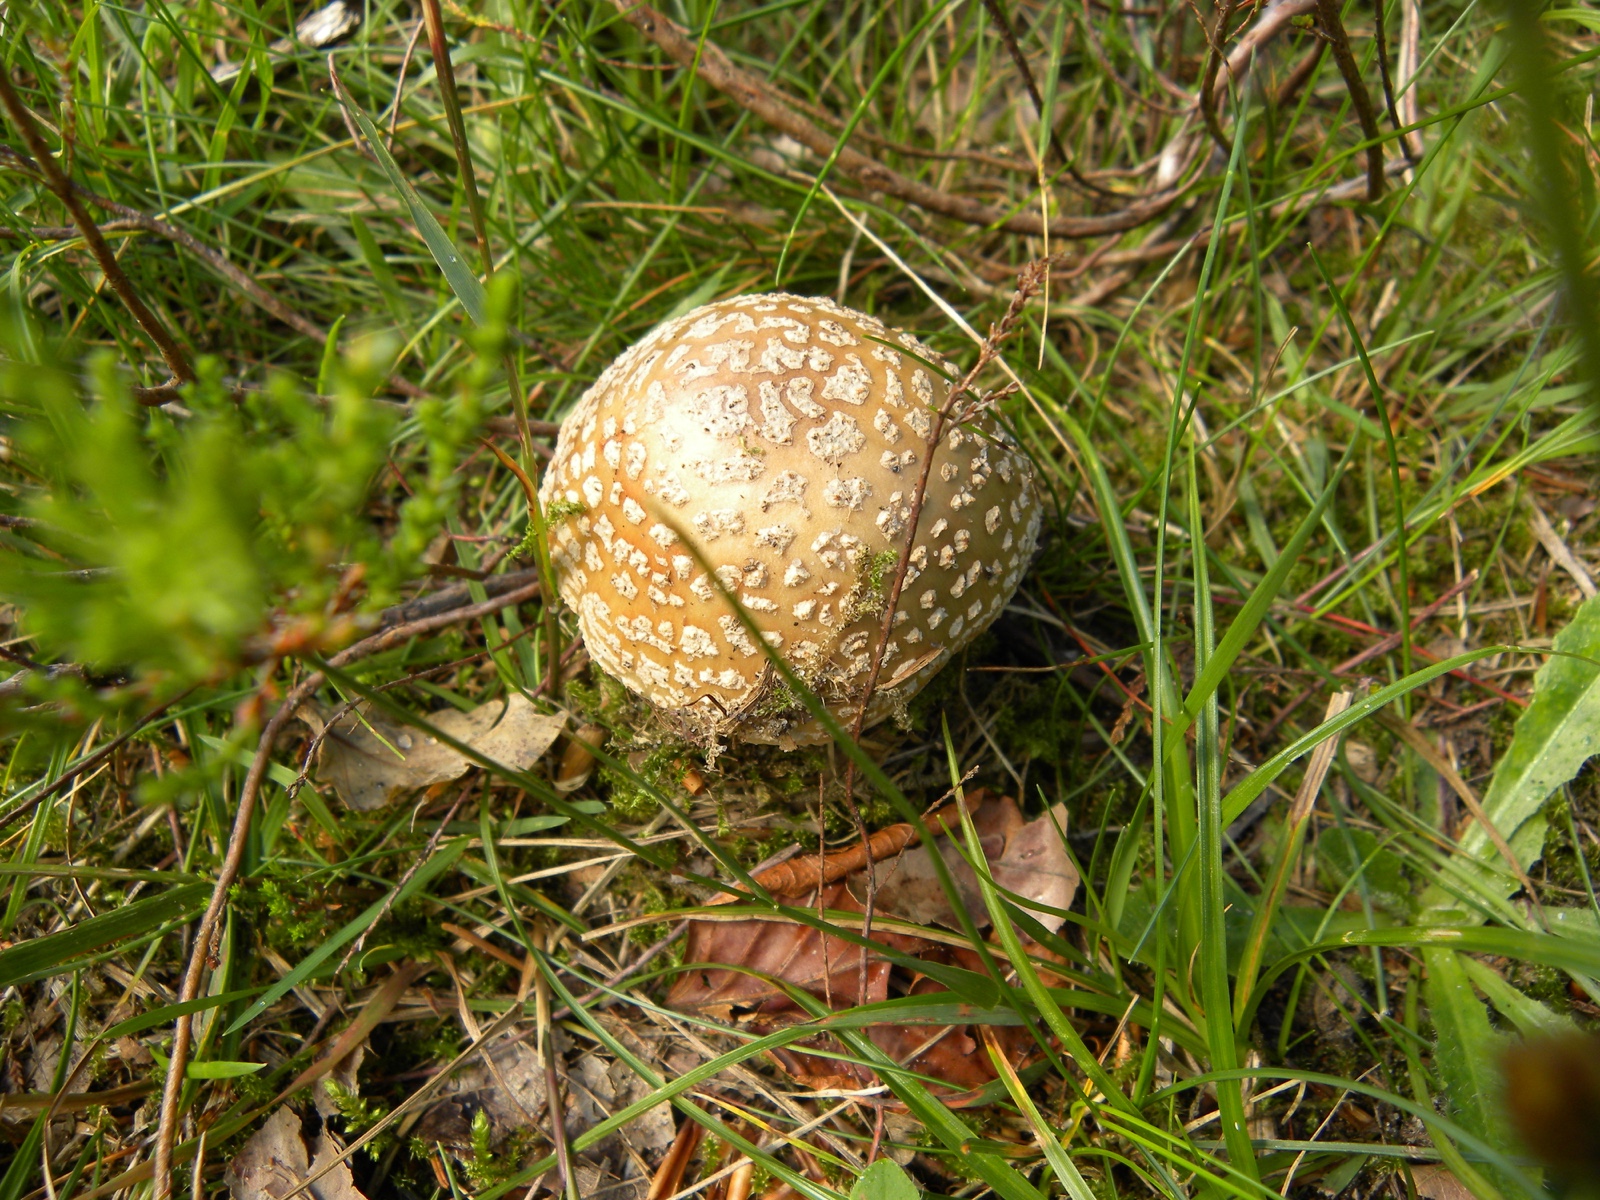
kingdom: Fungi
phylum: Basidiomycota
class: Agaricomycetes
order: Agaricales
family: Amanitaceae
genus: Amanita
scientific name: Amanita
